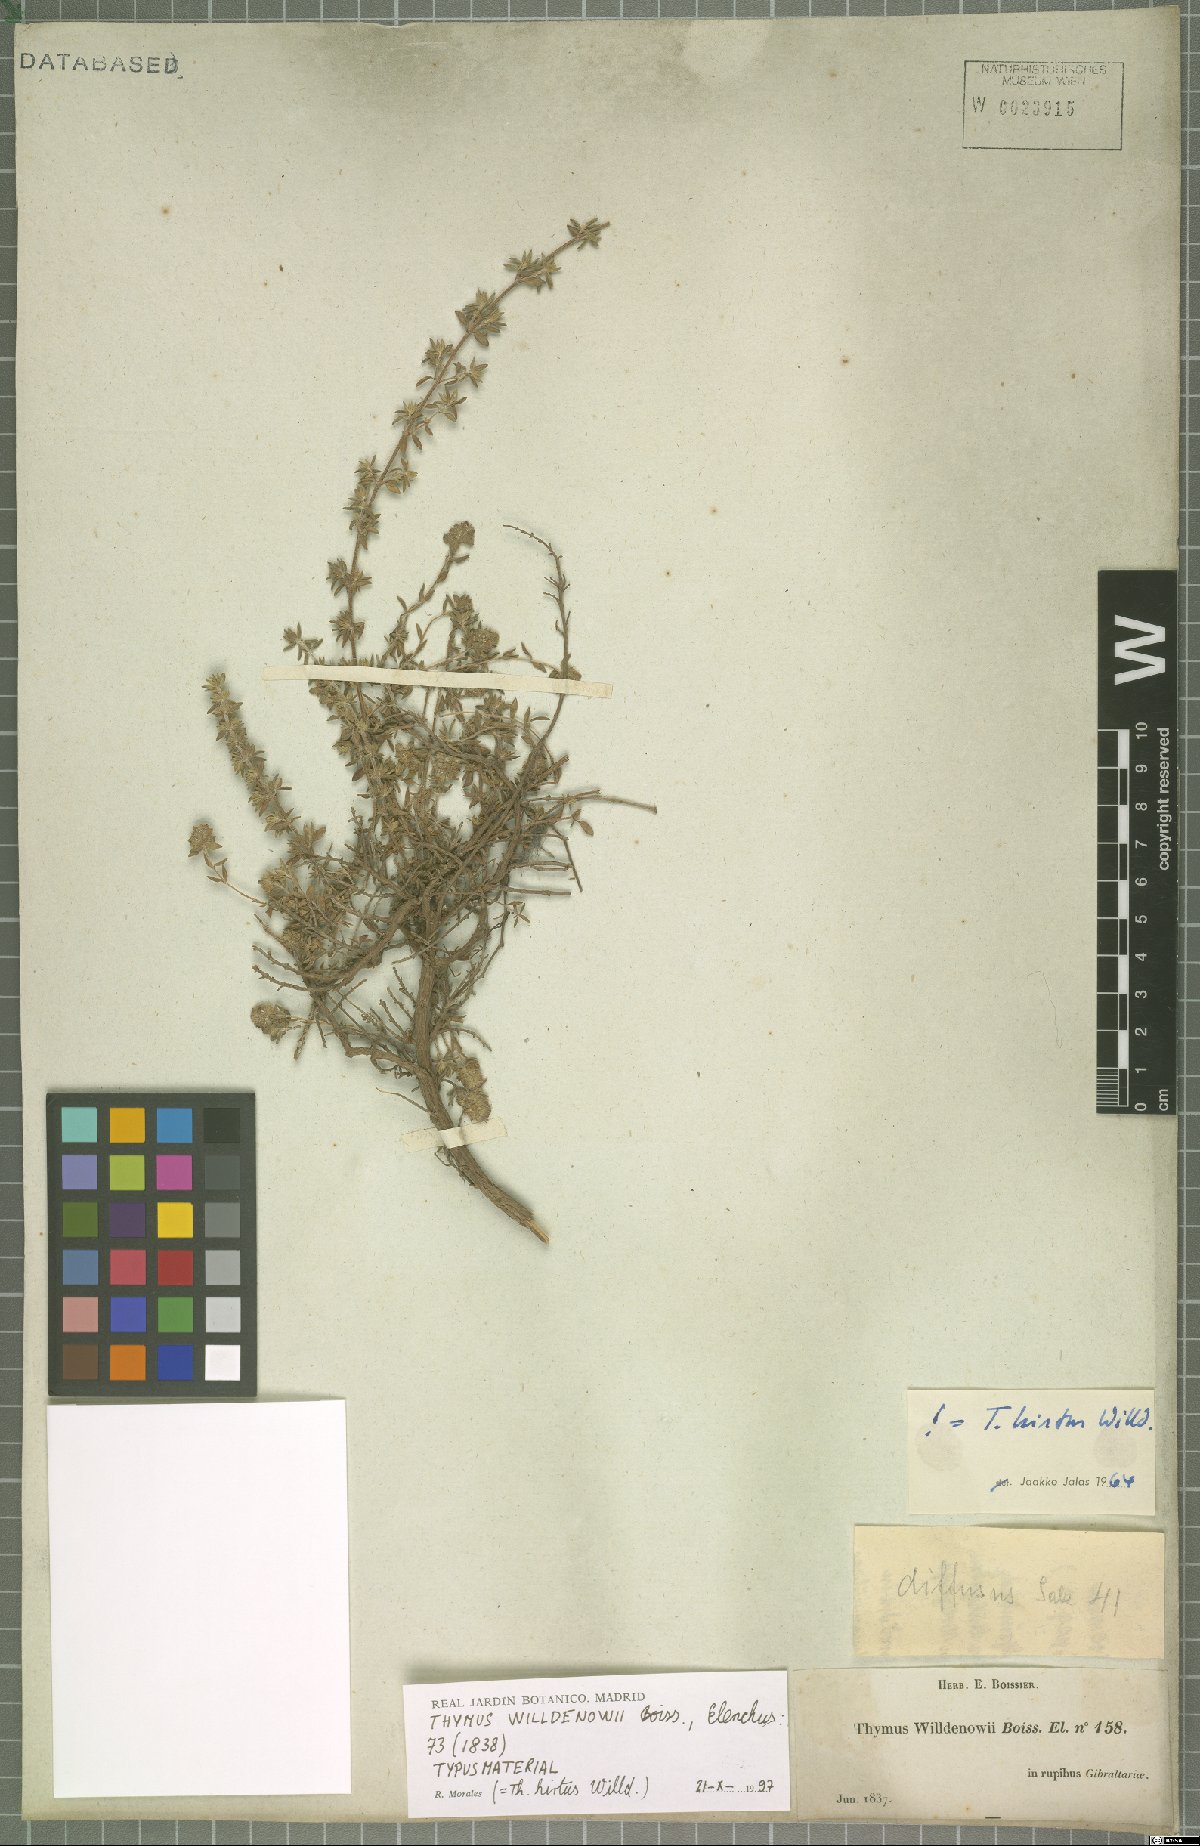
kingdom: Plantae
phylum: Tracheophyta
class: Magnoliopsida
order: Lamiales
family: Lamiaceae
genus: Thymus
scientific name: Thymus willdenowii
